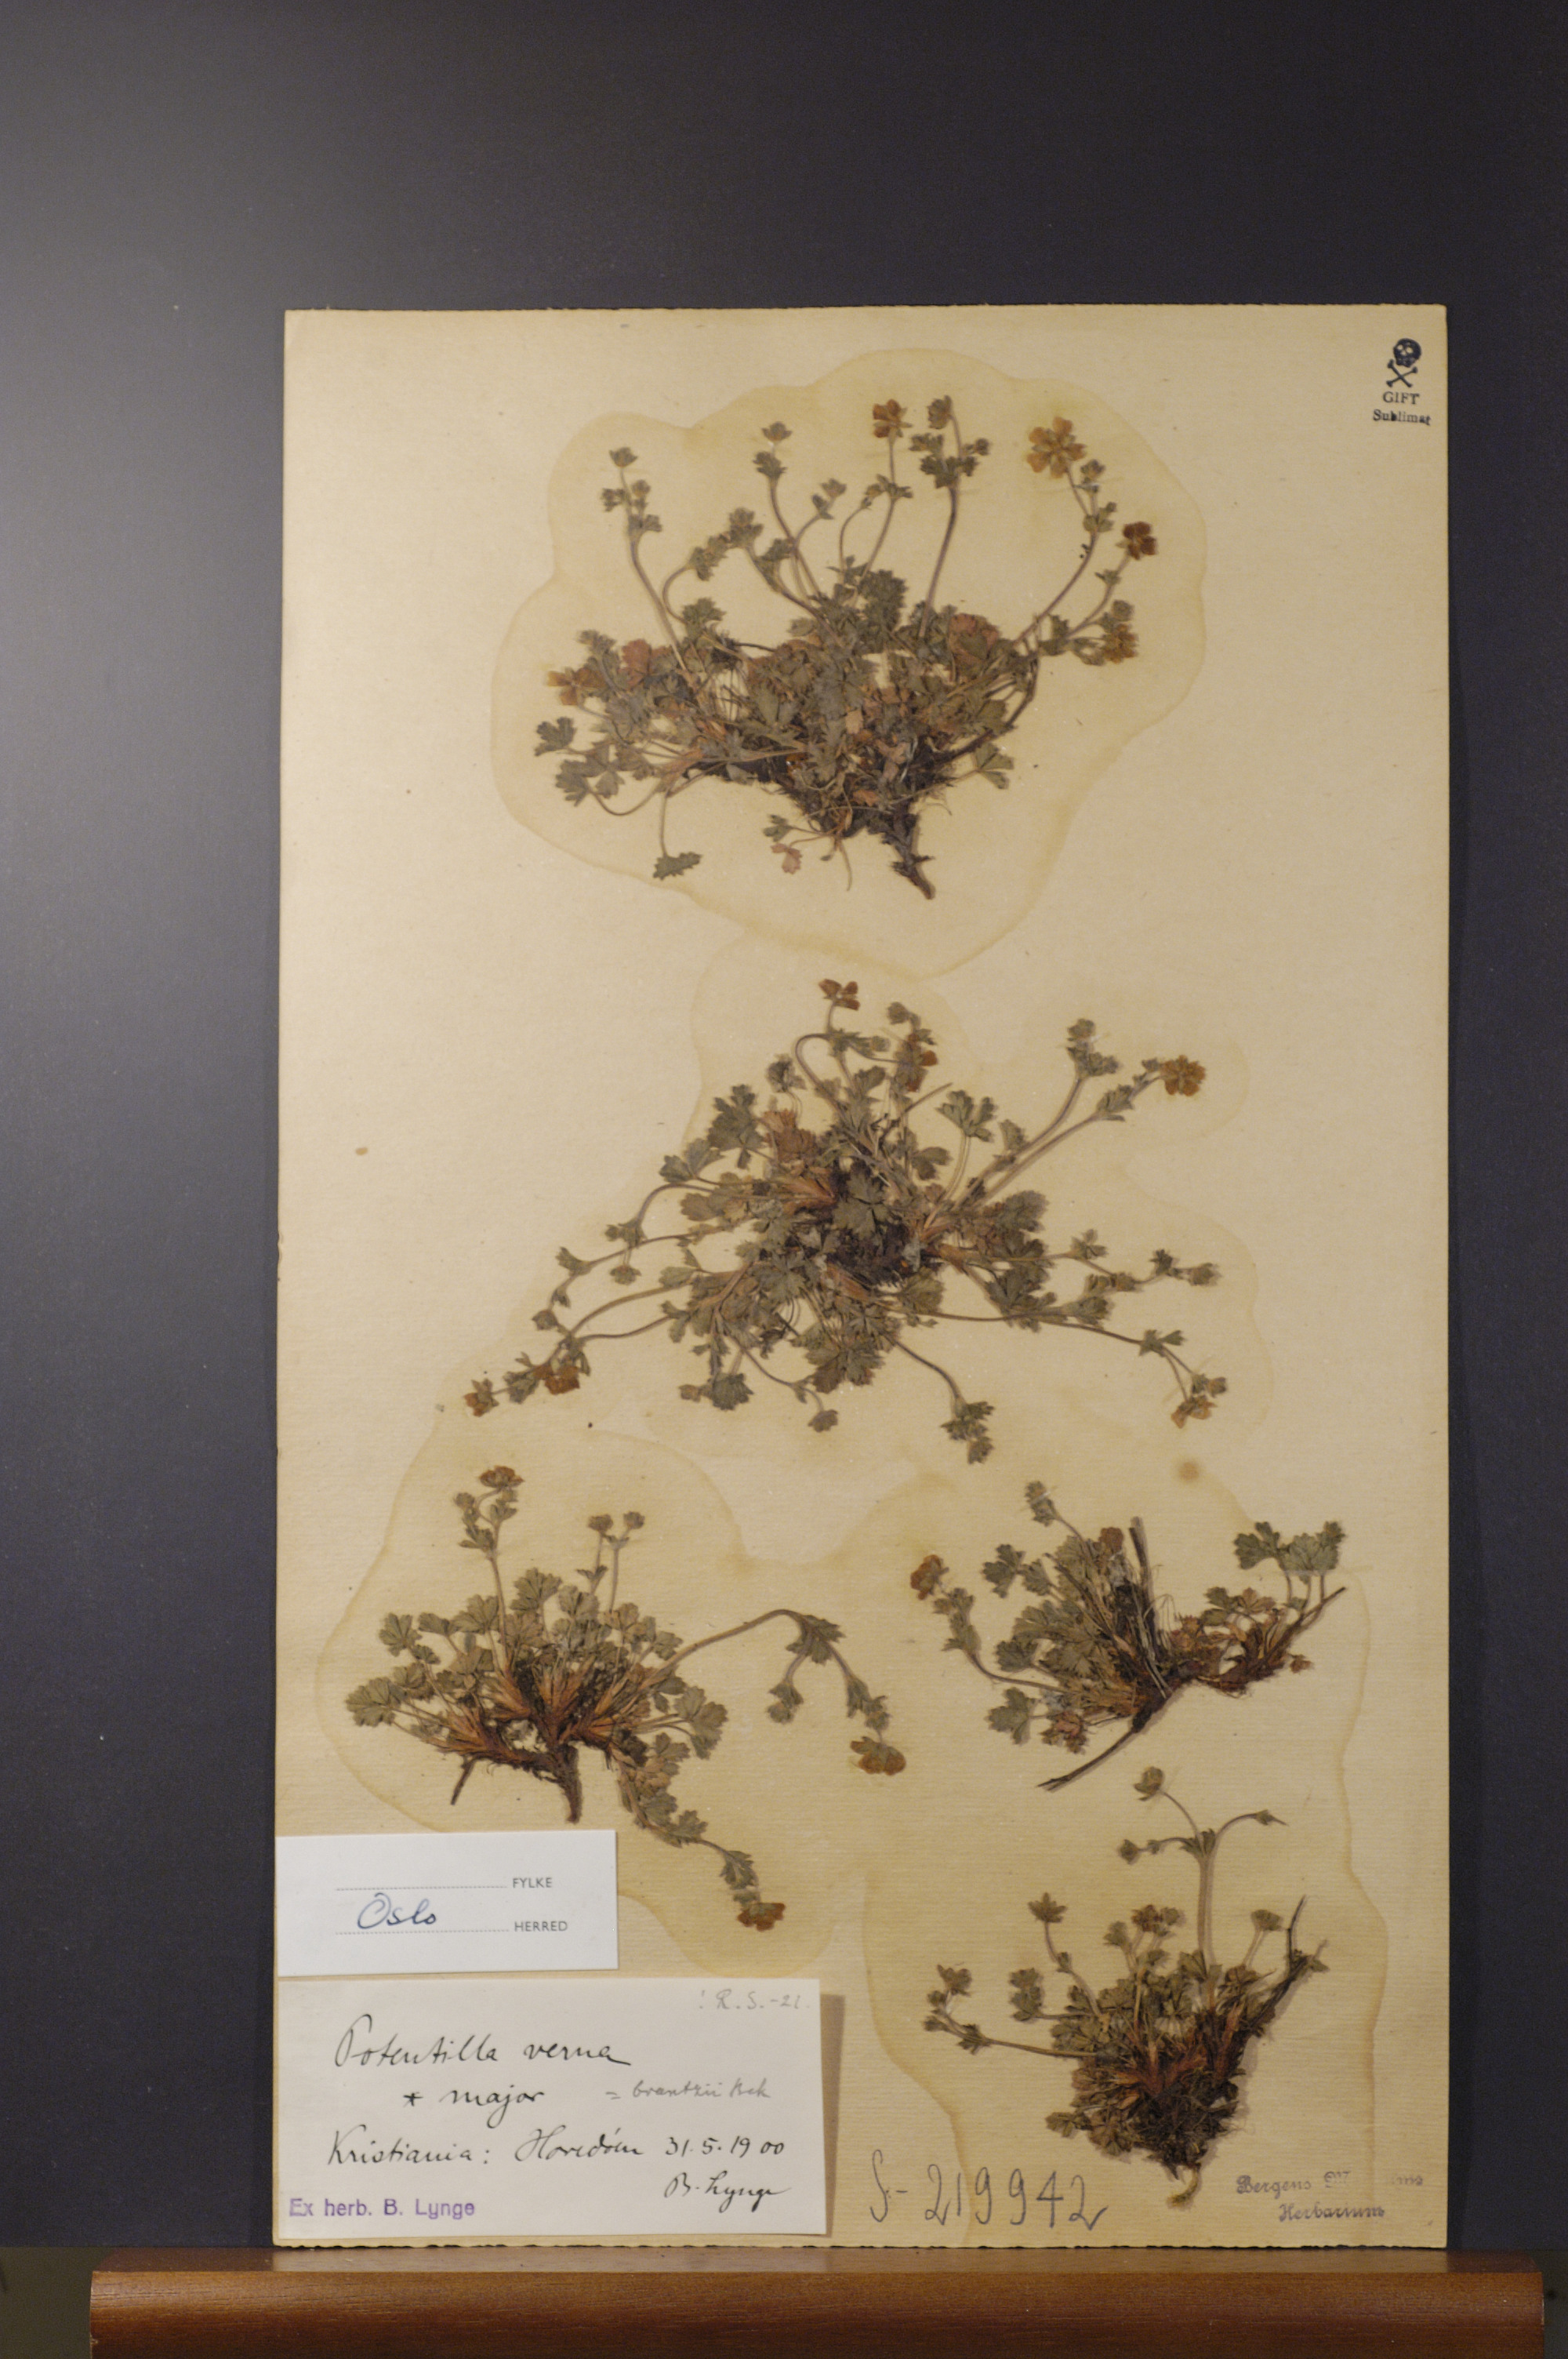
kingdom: Plantae
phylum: Tracheophyta
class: Magnoliopsida
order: Rosales
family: Rosaceae
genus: Potentilla
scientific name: Potentilla crantzii
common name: Alpine cinquefoil
